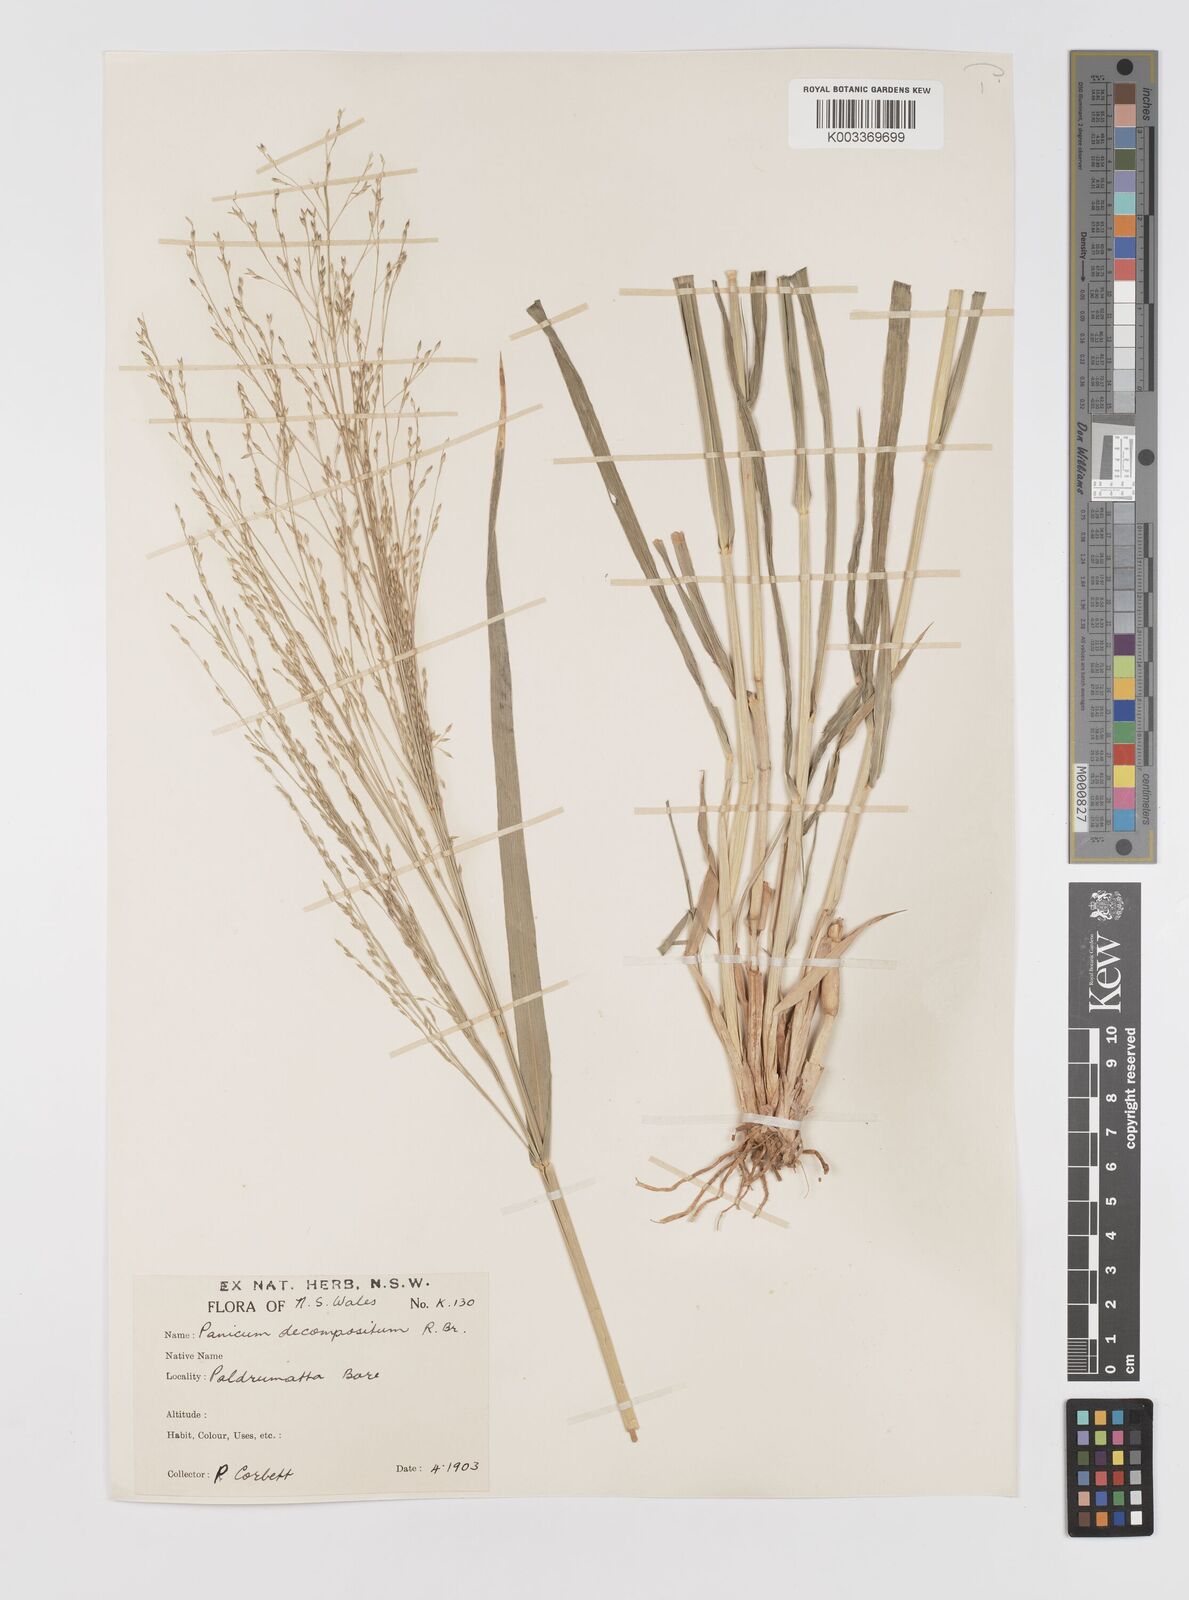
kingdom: Plantae
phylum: Tracheophyta
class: Liliopsida
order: Poales
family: Poaceae
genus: Panicum
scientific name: Panicum decompositum
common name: Australian millet
